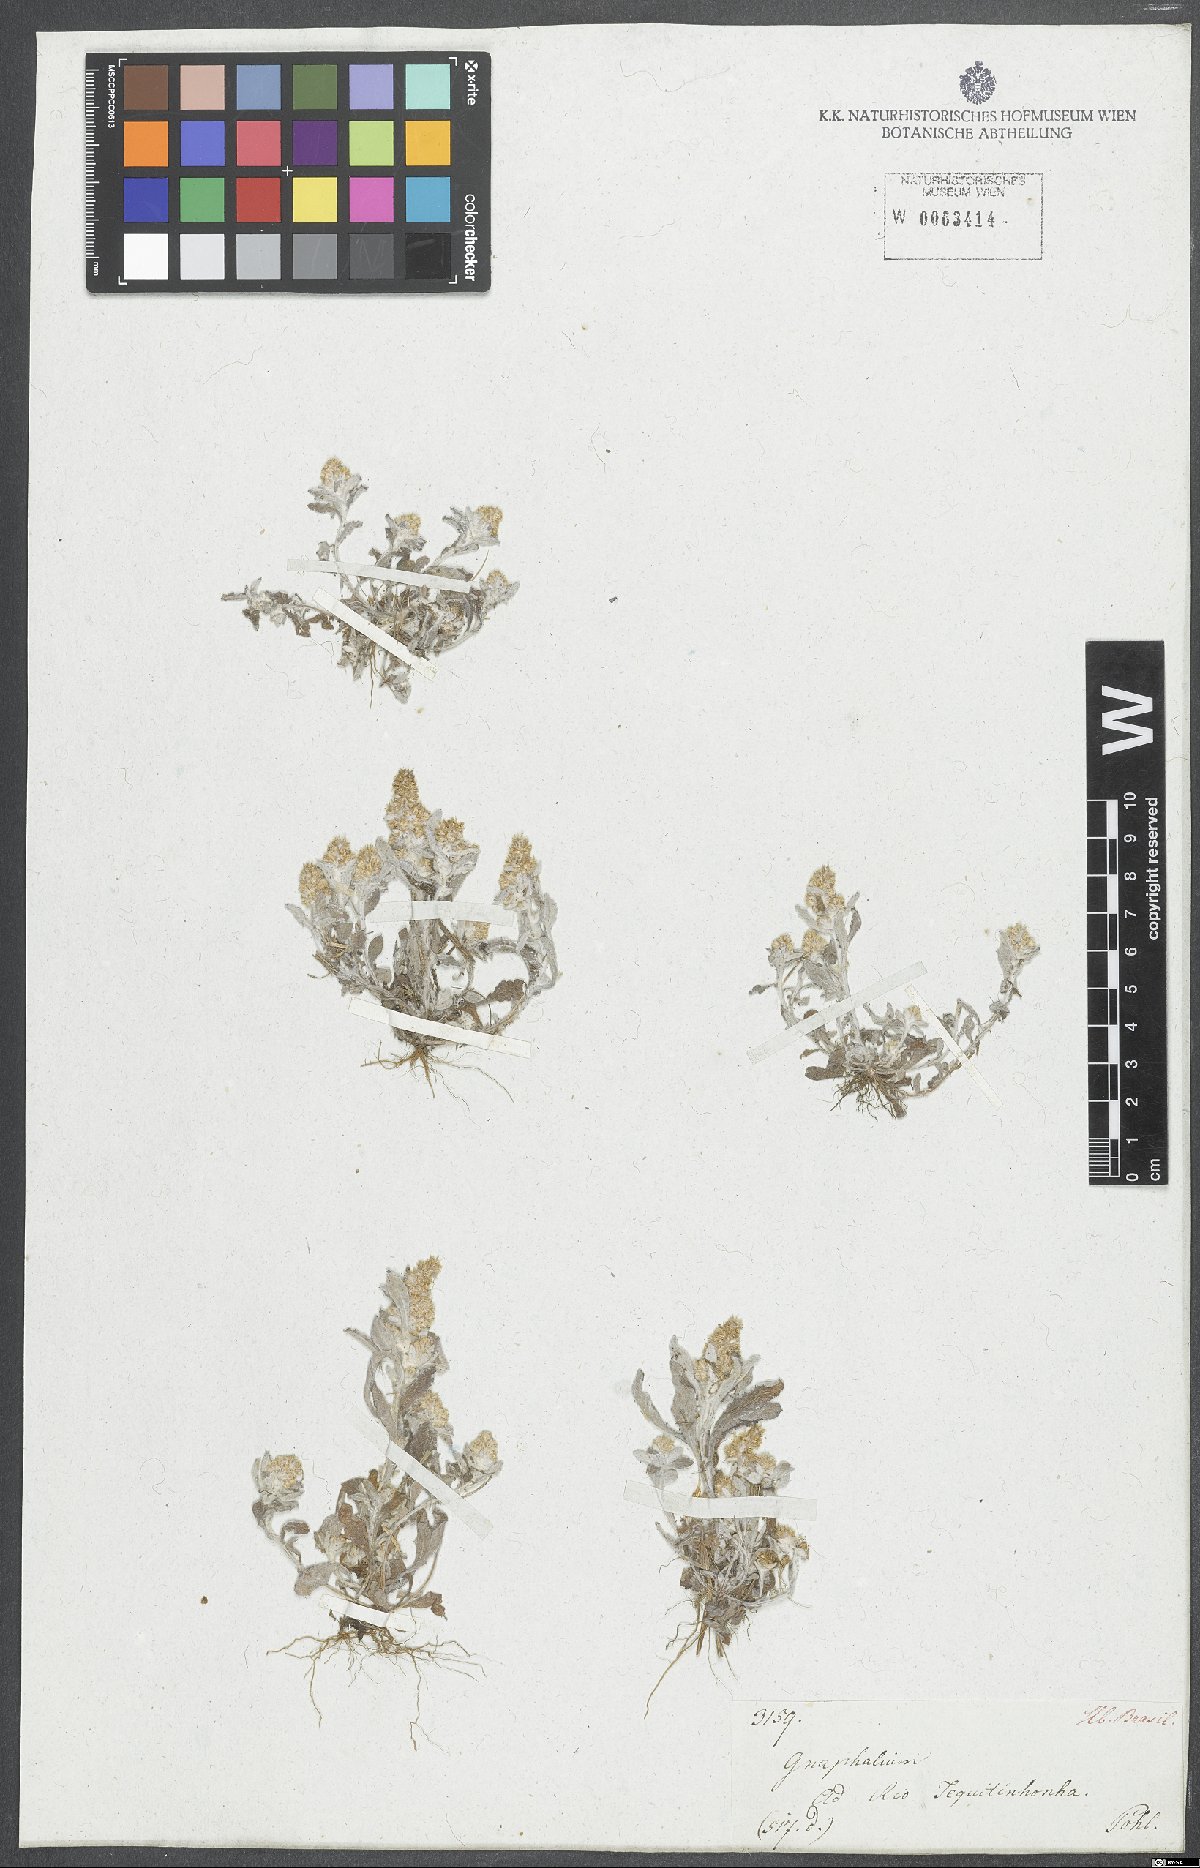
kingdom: Plantae
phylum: Tracheophyta
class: Magnoliopsida
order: Asterales
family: Asteraceae
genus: Gamochaeta
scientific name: Gamochaeta filaginea
